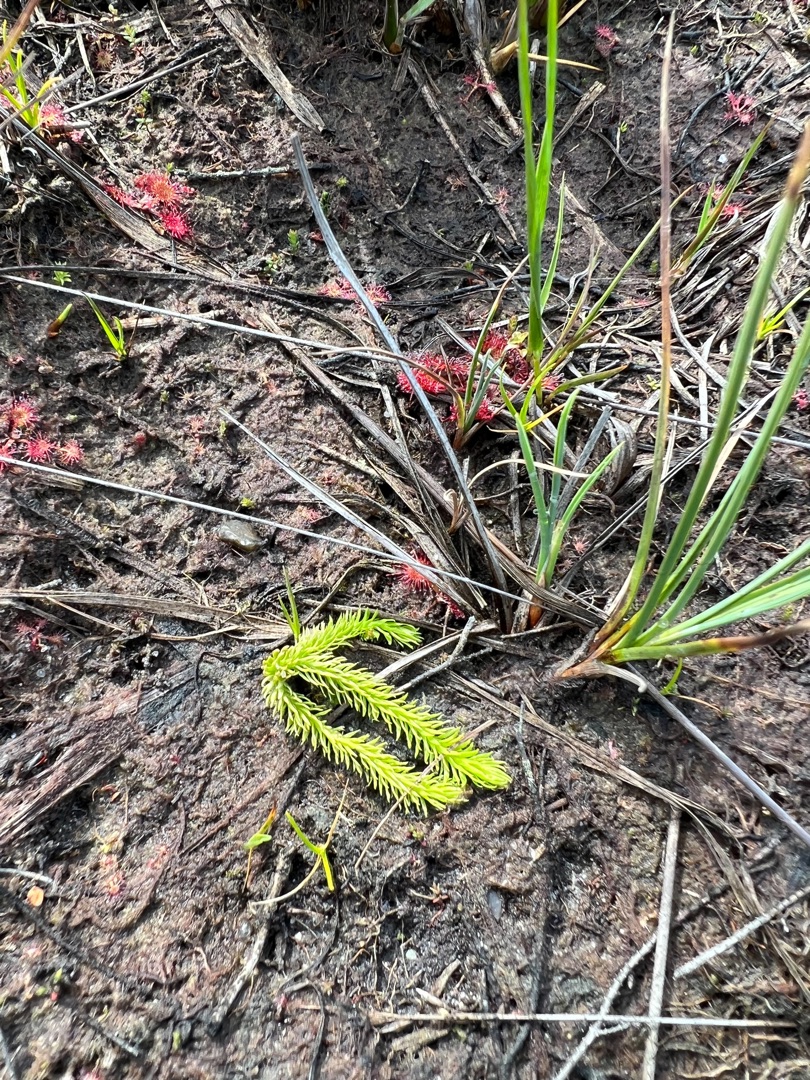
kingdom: Plantae
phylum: Tracheophyta
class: Lycopodiopsida
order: Lycopodiales
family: Lycopodiaceae
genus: Lycopodiella
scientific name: Lycopodiella inundata
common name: Liden ulvefod
